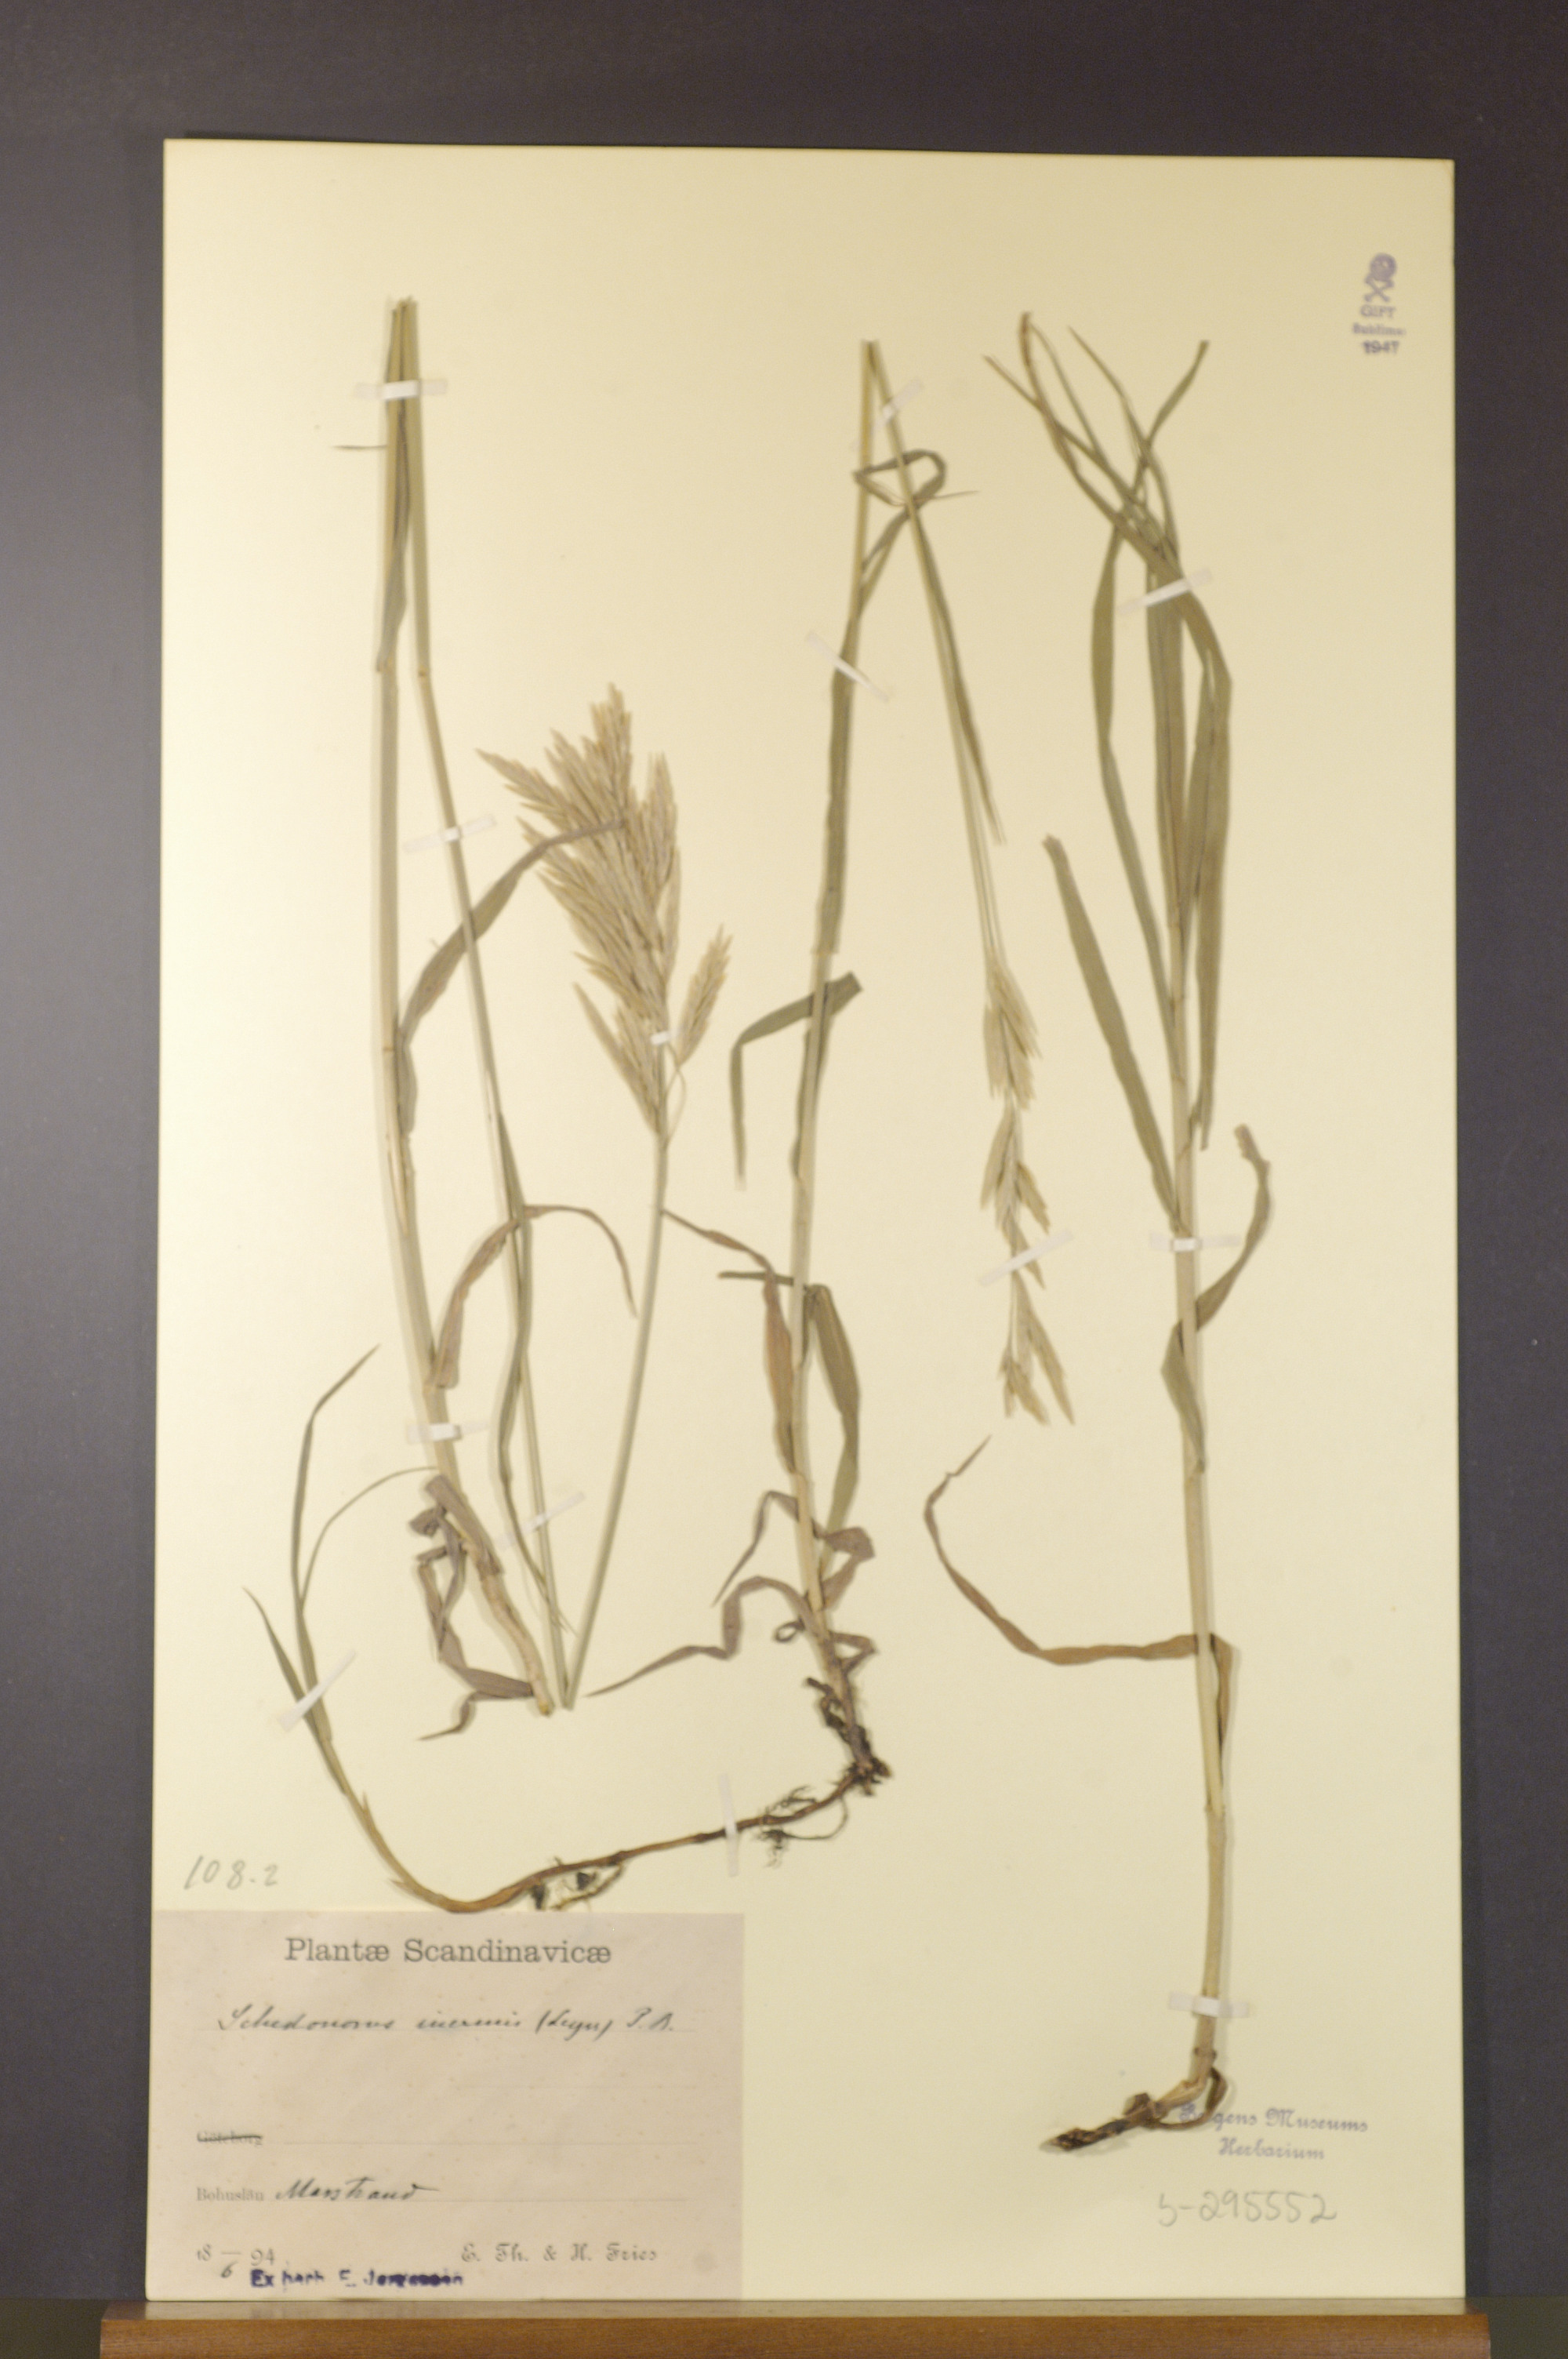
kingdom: Plantae
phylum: Tracheophyta
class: Liliopsida
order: Poales
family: Poaceae
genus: Bromus
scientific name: Bromus inermis
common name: Smooth brome
